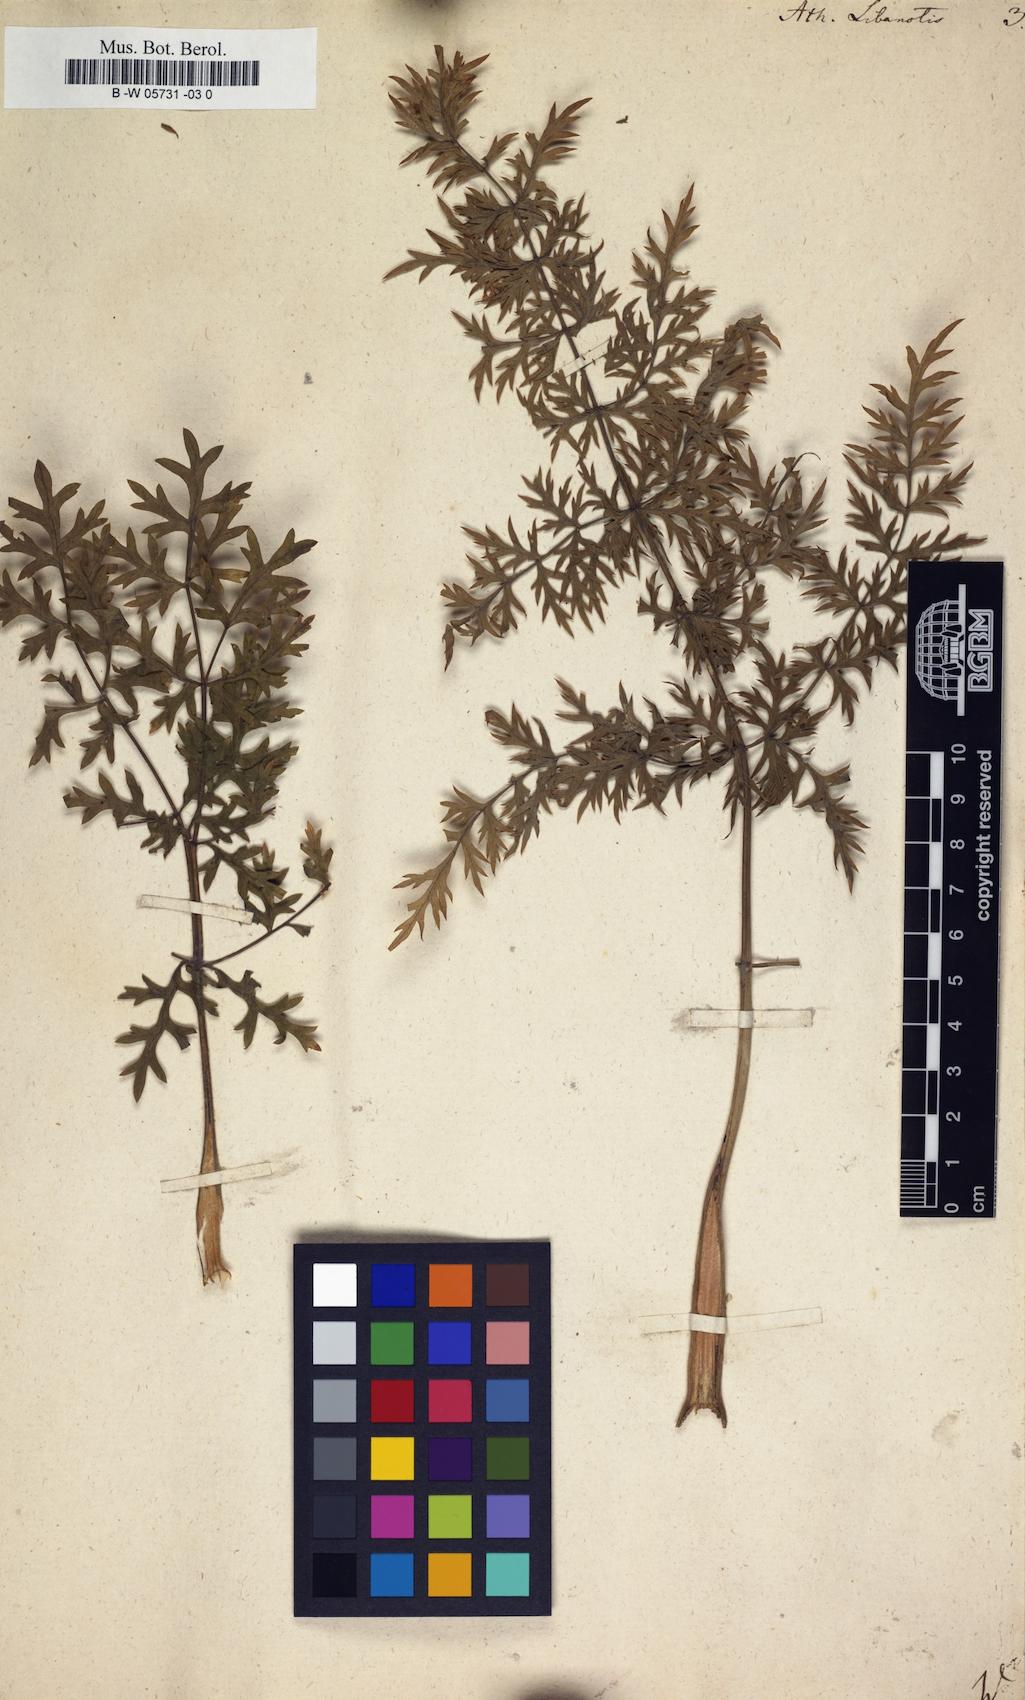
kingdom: Plantae
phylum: Tracheophyta
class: Magnoliopsida
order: Apiales
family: Apiaceae
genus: Seseli
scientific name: Seseli libanotis
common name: Mooncarrot
